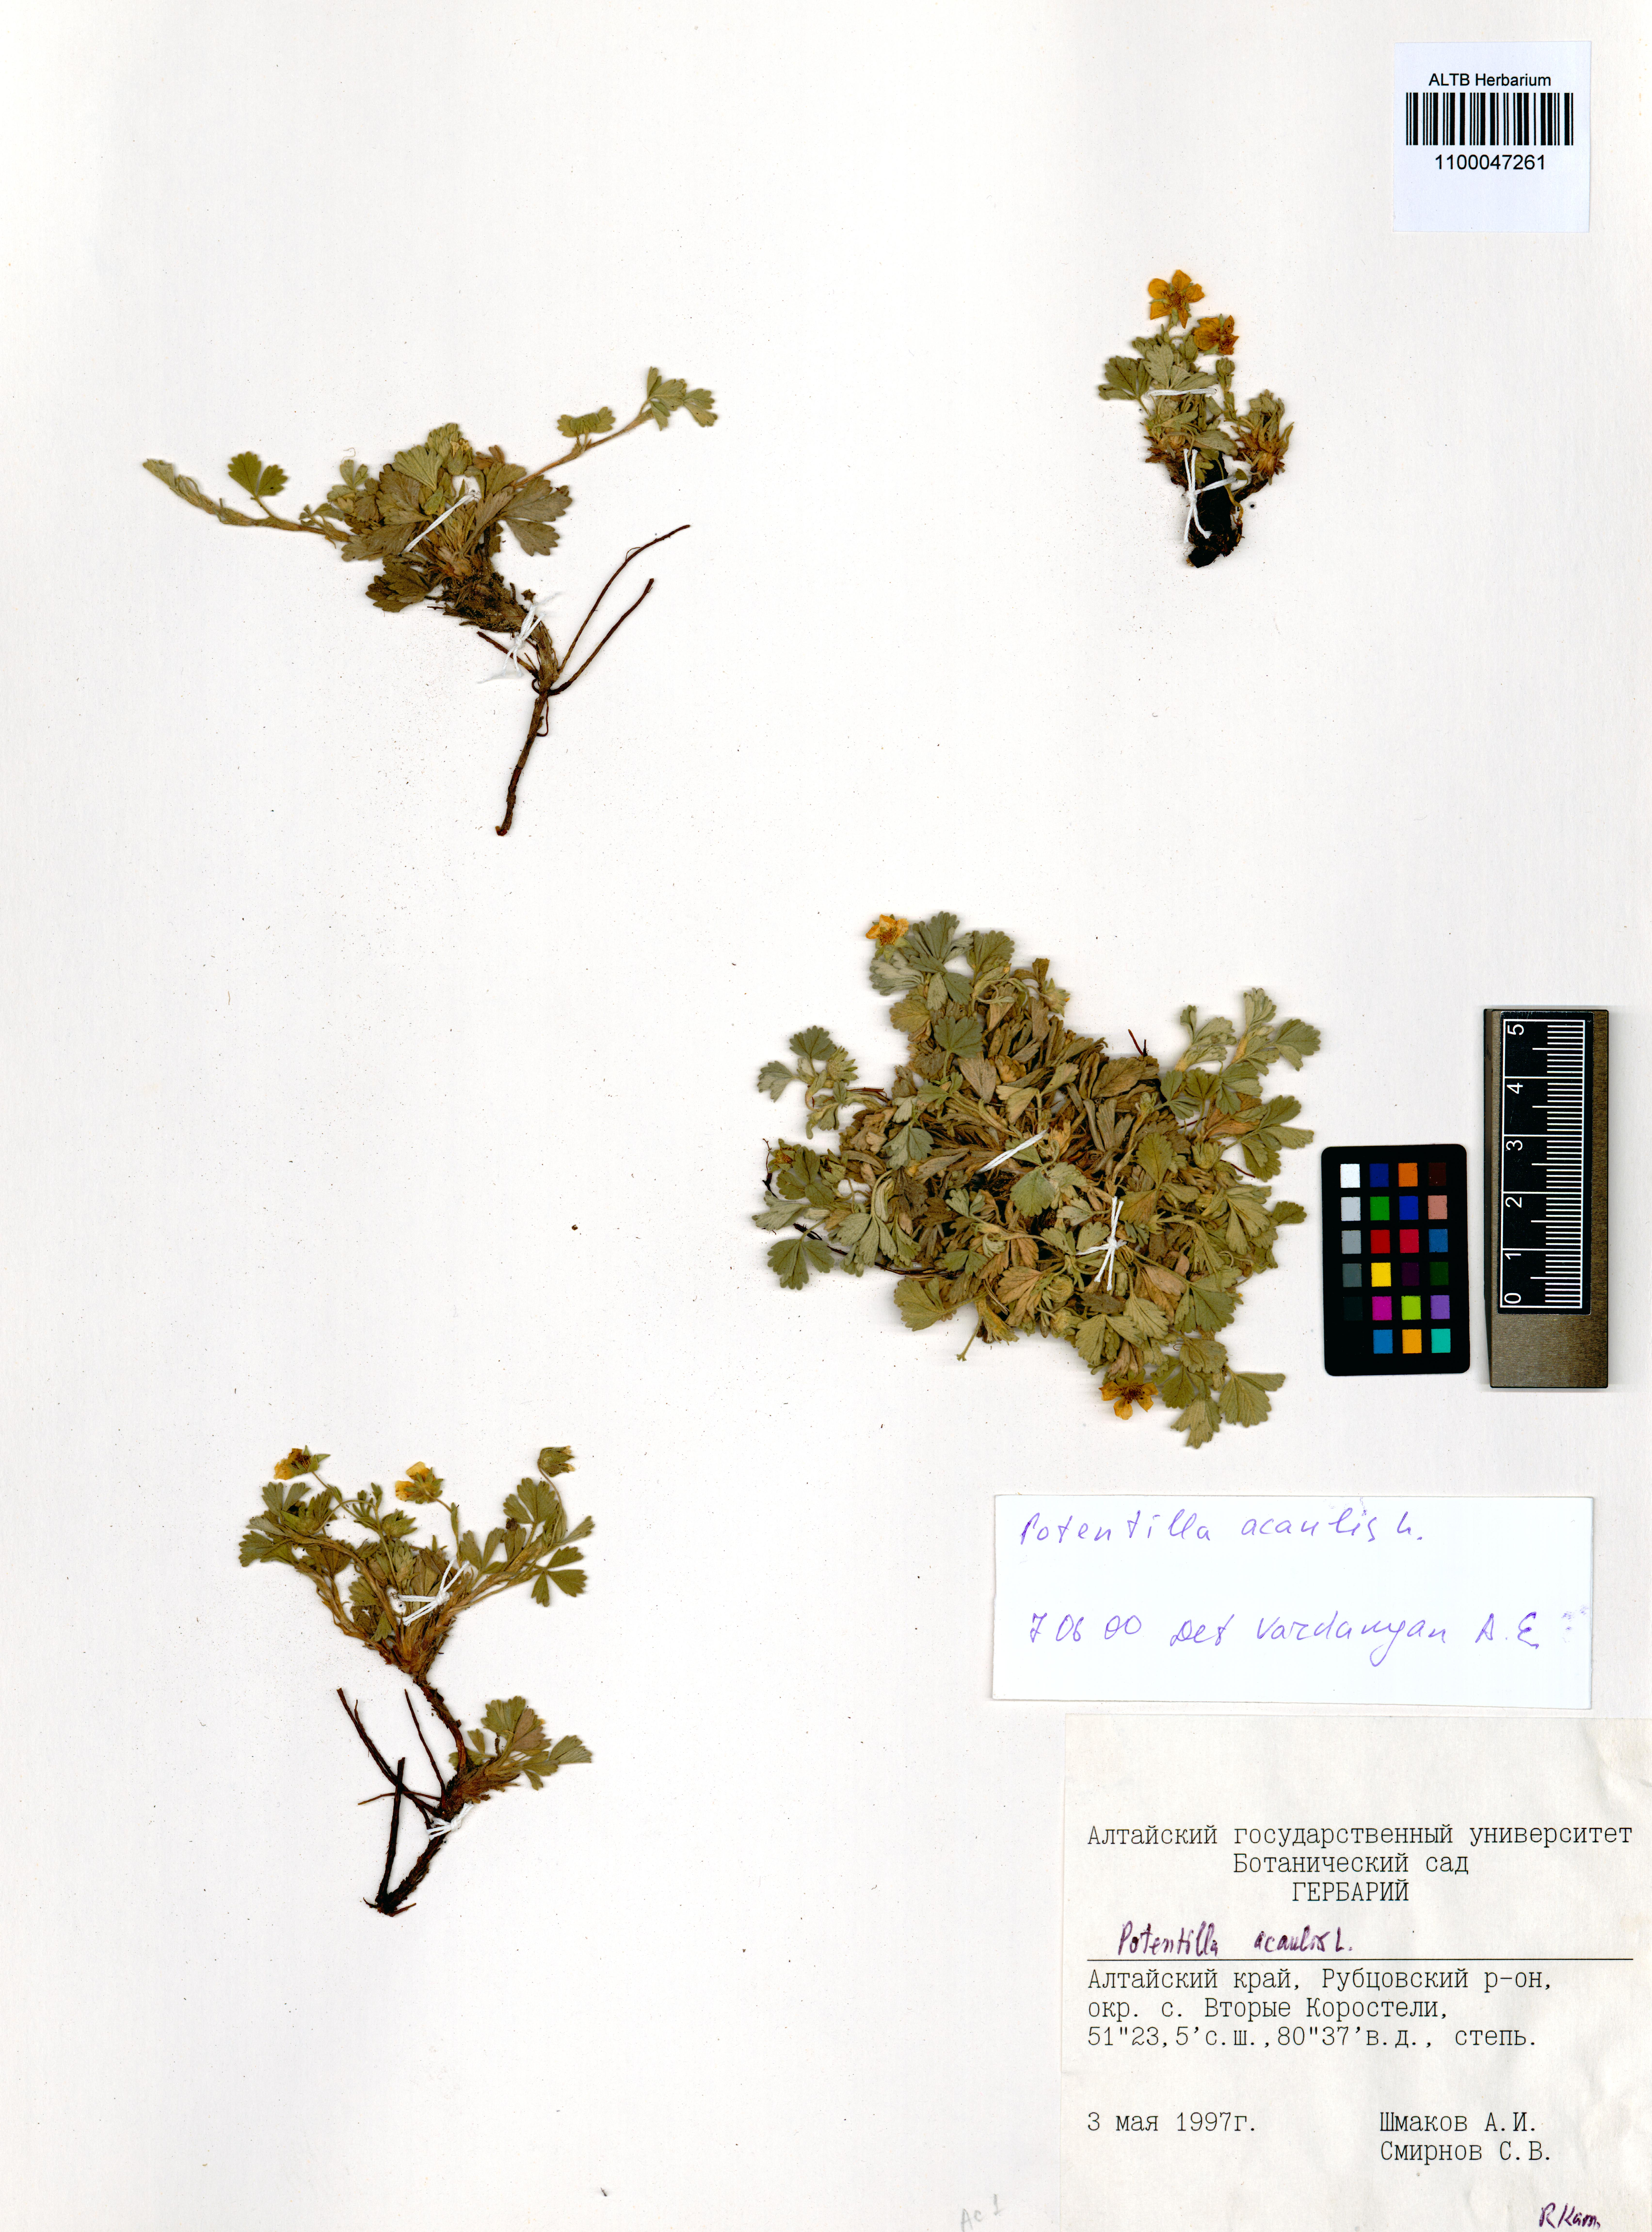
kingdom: Plantae
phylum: Tracheophyta
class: Magnoliopsida
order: Rosales
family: Rosaceae
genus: Potentilla
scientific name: Potentilla acaulis
